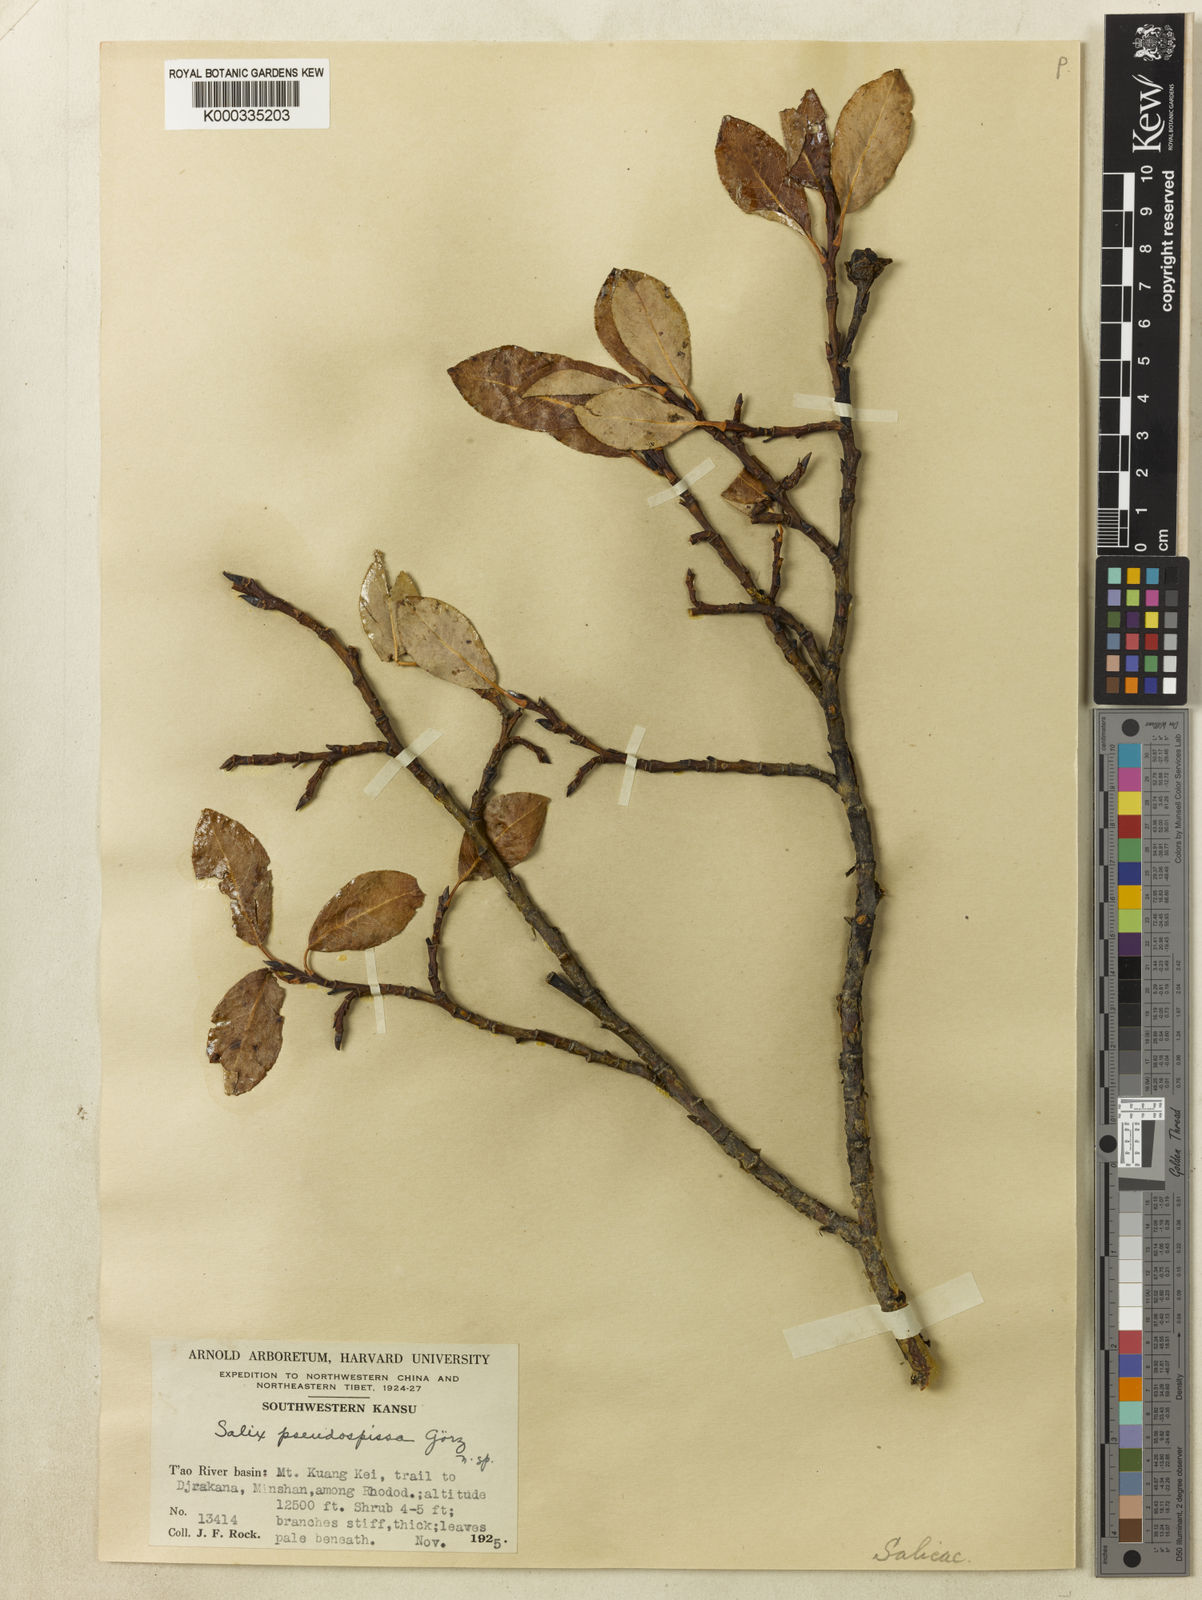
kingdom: Plantae
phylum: Tracheophyta
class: Magnoliopsida
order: Malpighiales
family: Salicaceae
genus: Salix
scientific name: Salix
